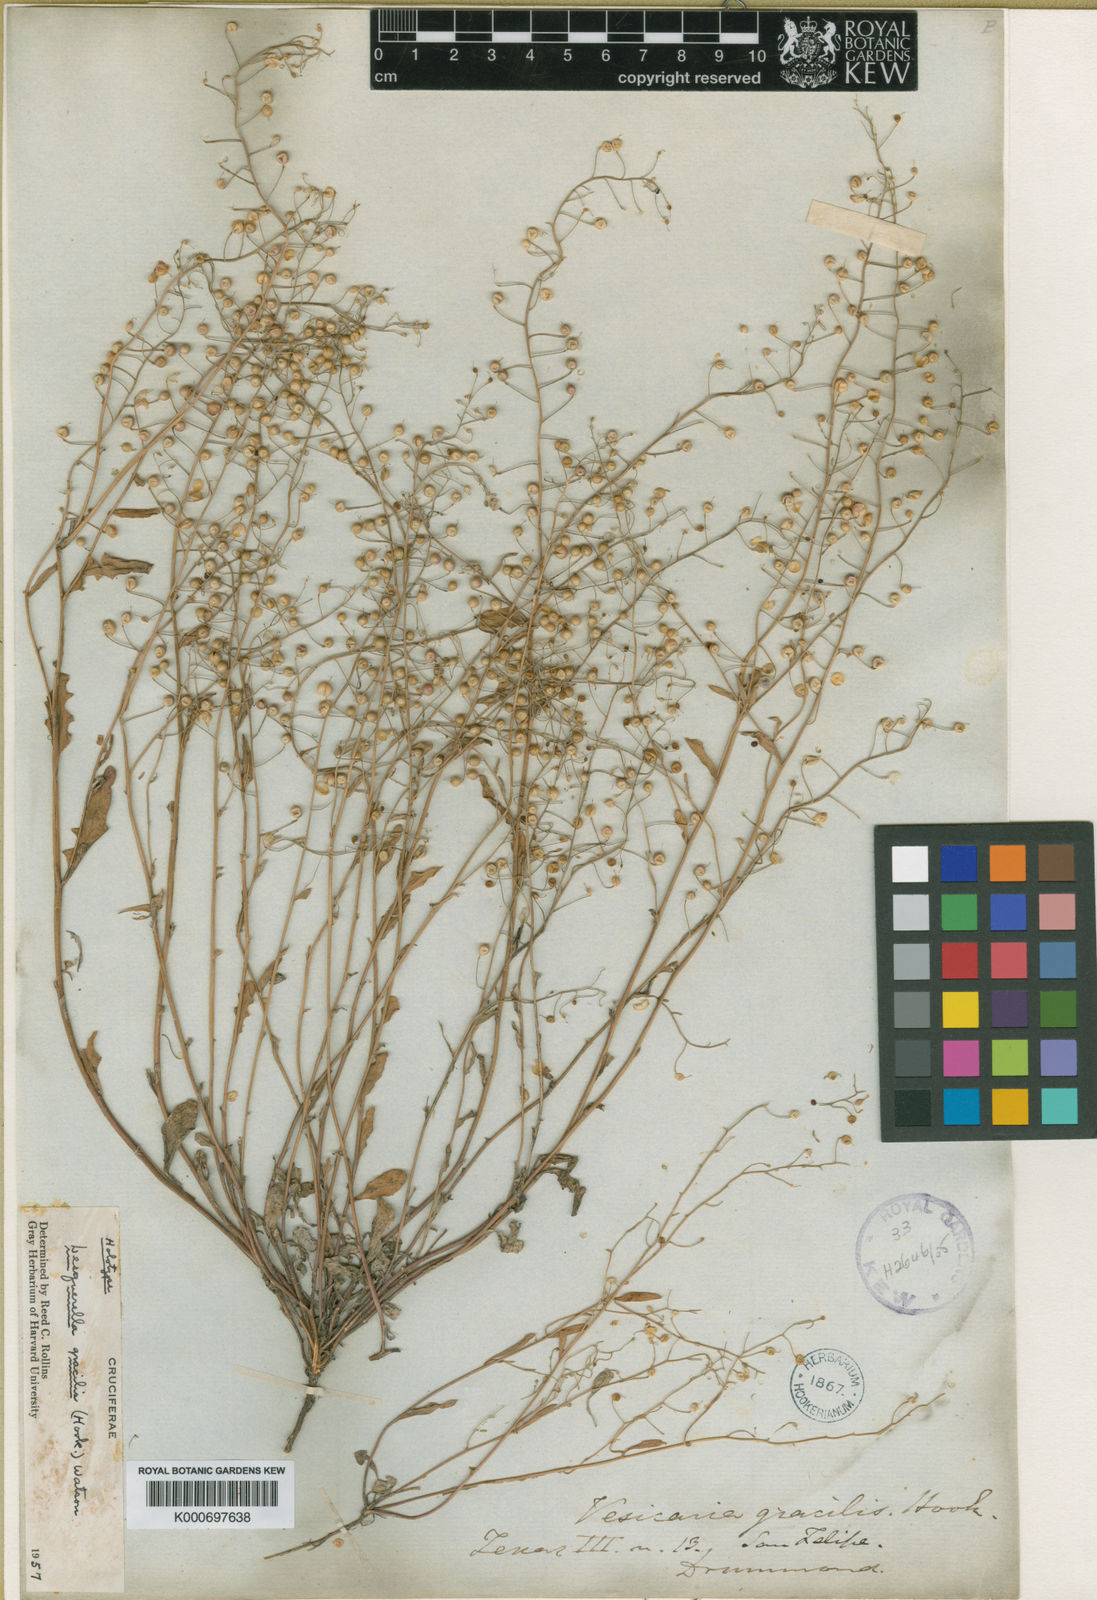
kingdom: Plantae
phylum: Tracheophyta
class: Magnoliopsida
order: Brassicales
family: Brassicaceae
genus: Physaria
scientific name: Physaria gracilis
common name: Spreading bladderpod
